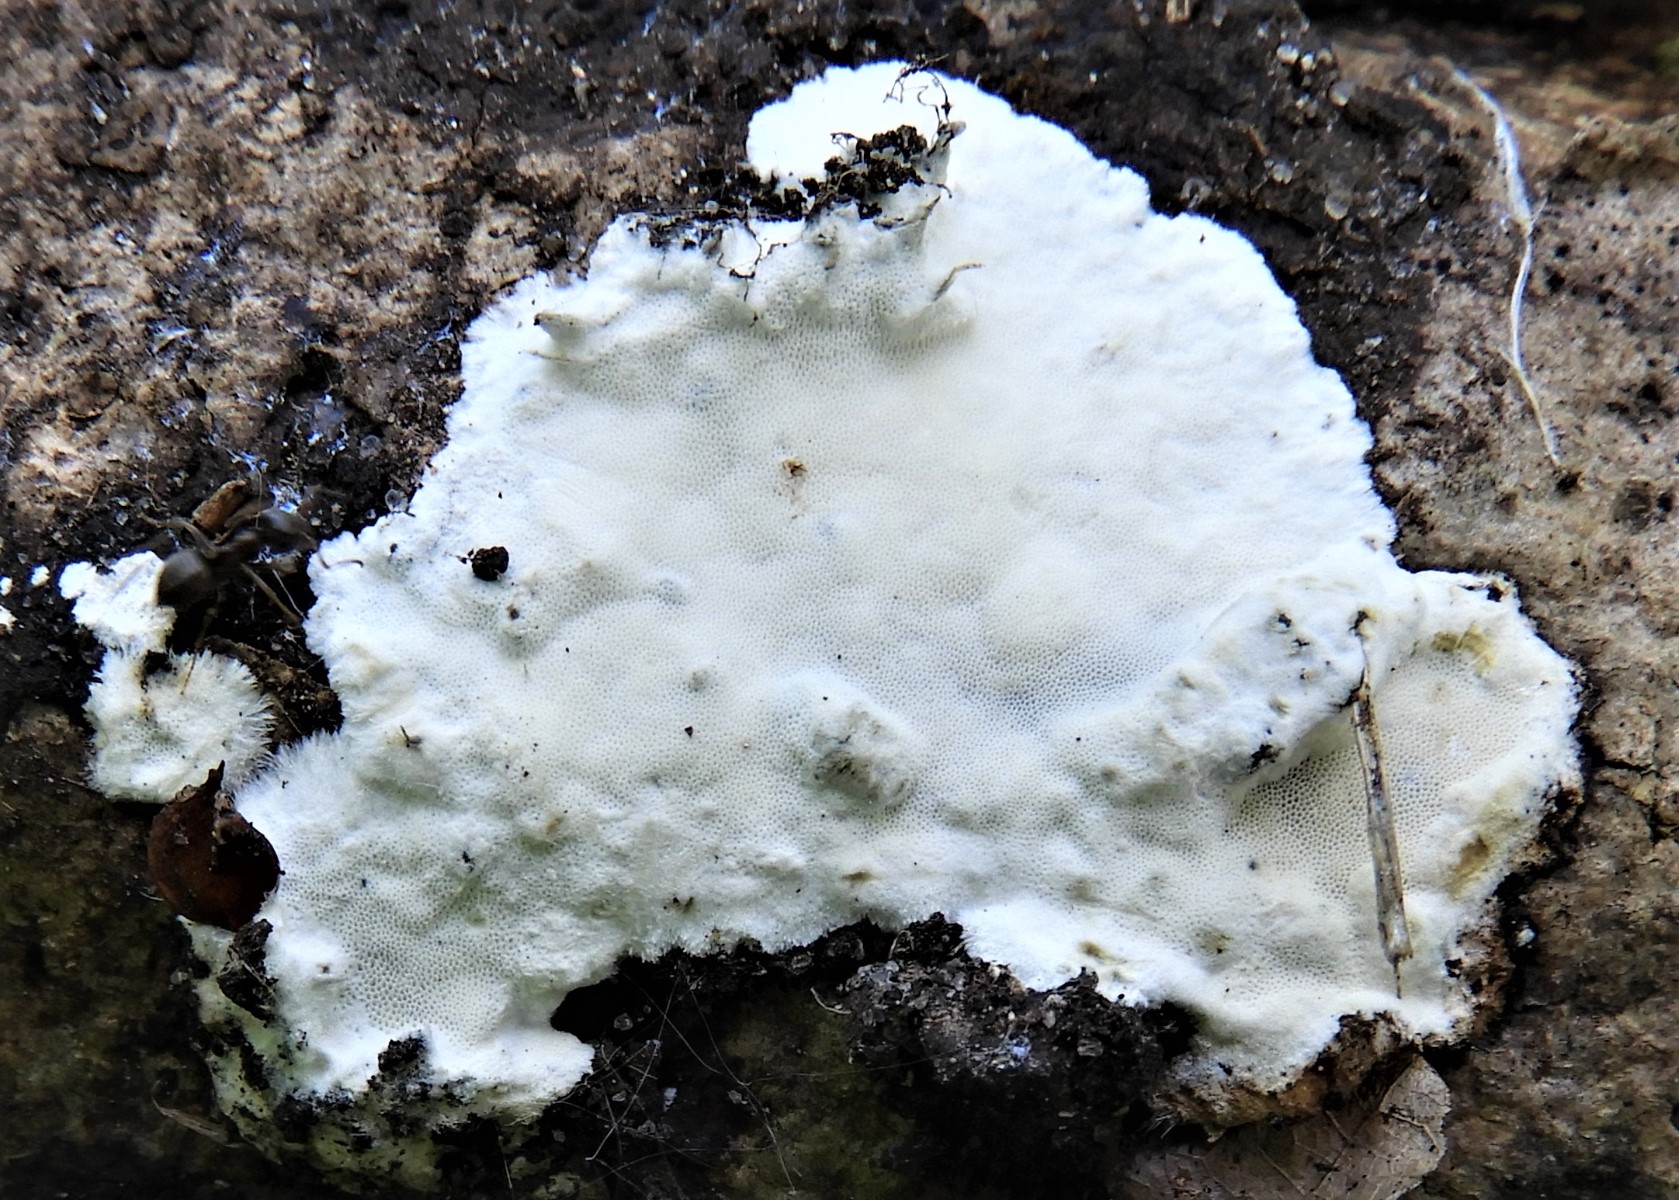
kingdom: Fungi
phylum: Basidiomycota
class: Agaricomycetes
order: Polyporales
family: Incrustoporiaceae
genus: Skeletocutis
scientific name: Skeletocutis nemoralis
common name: stor krystalporesvamp
